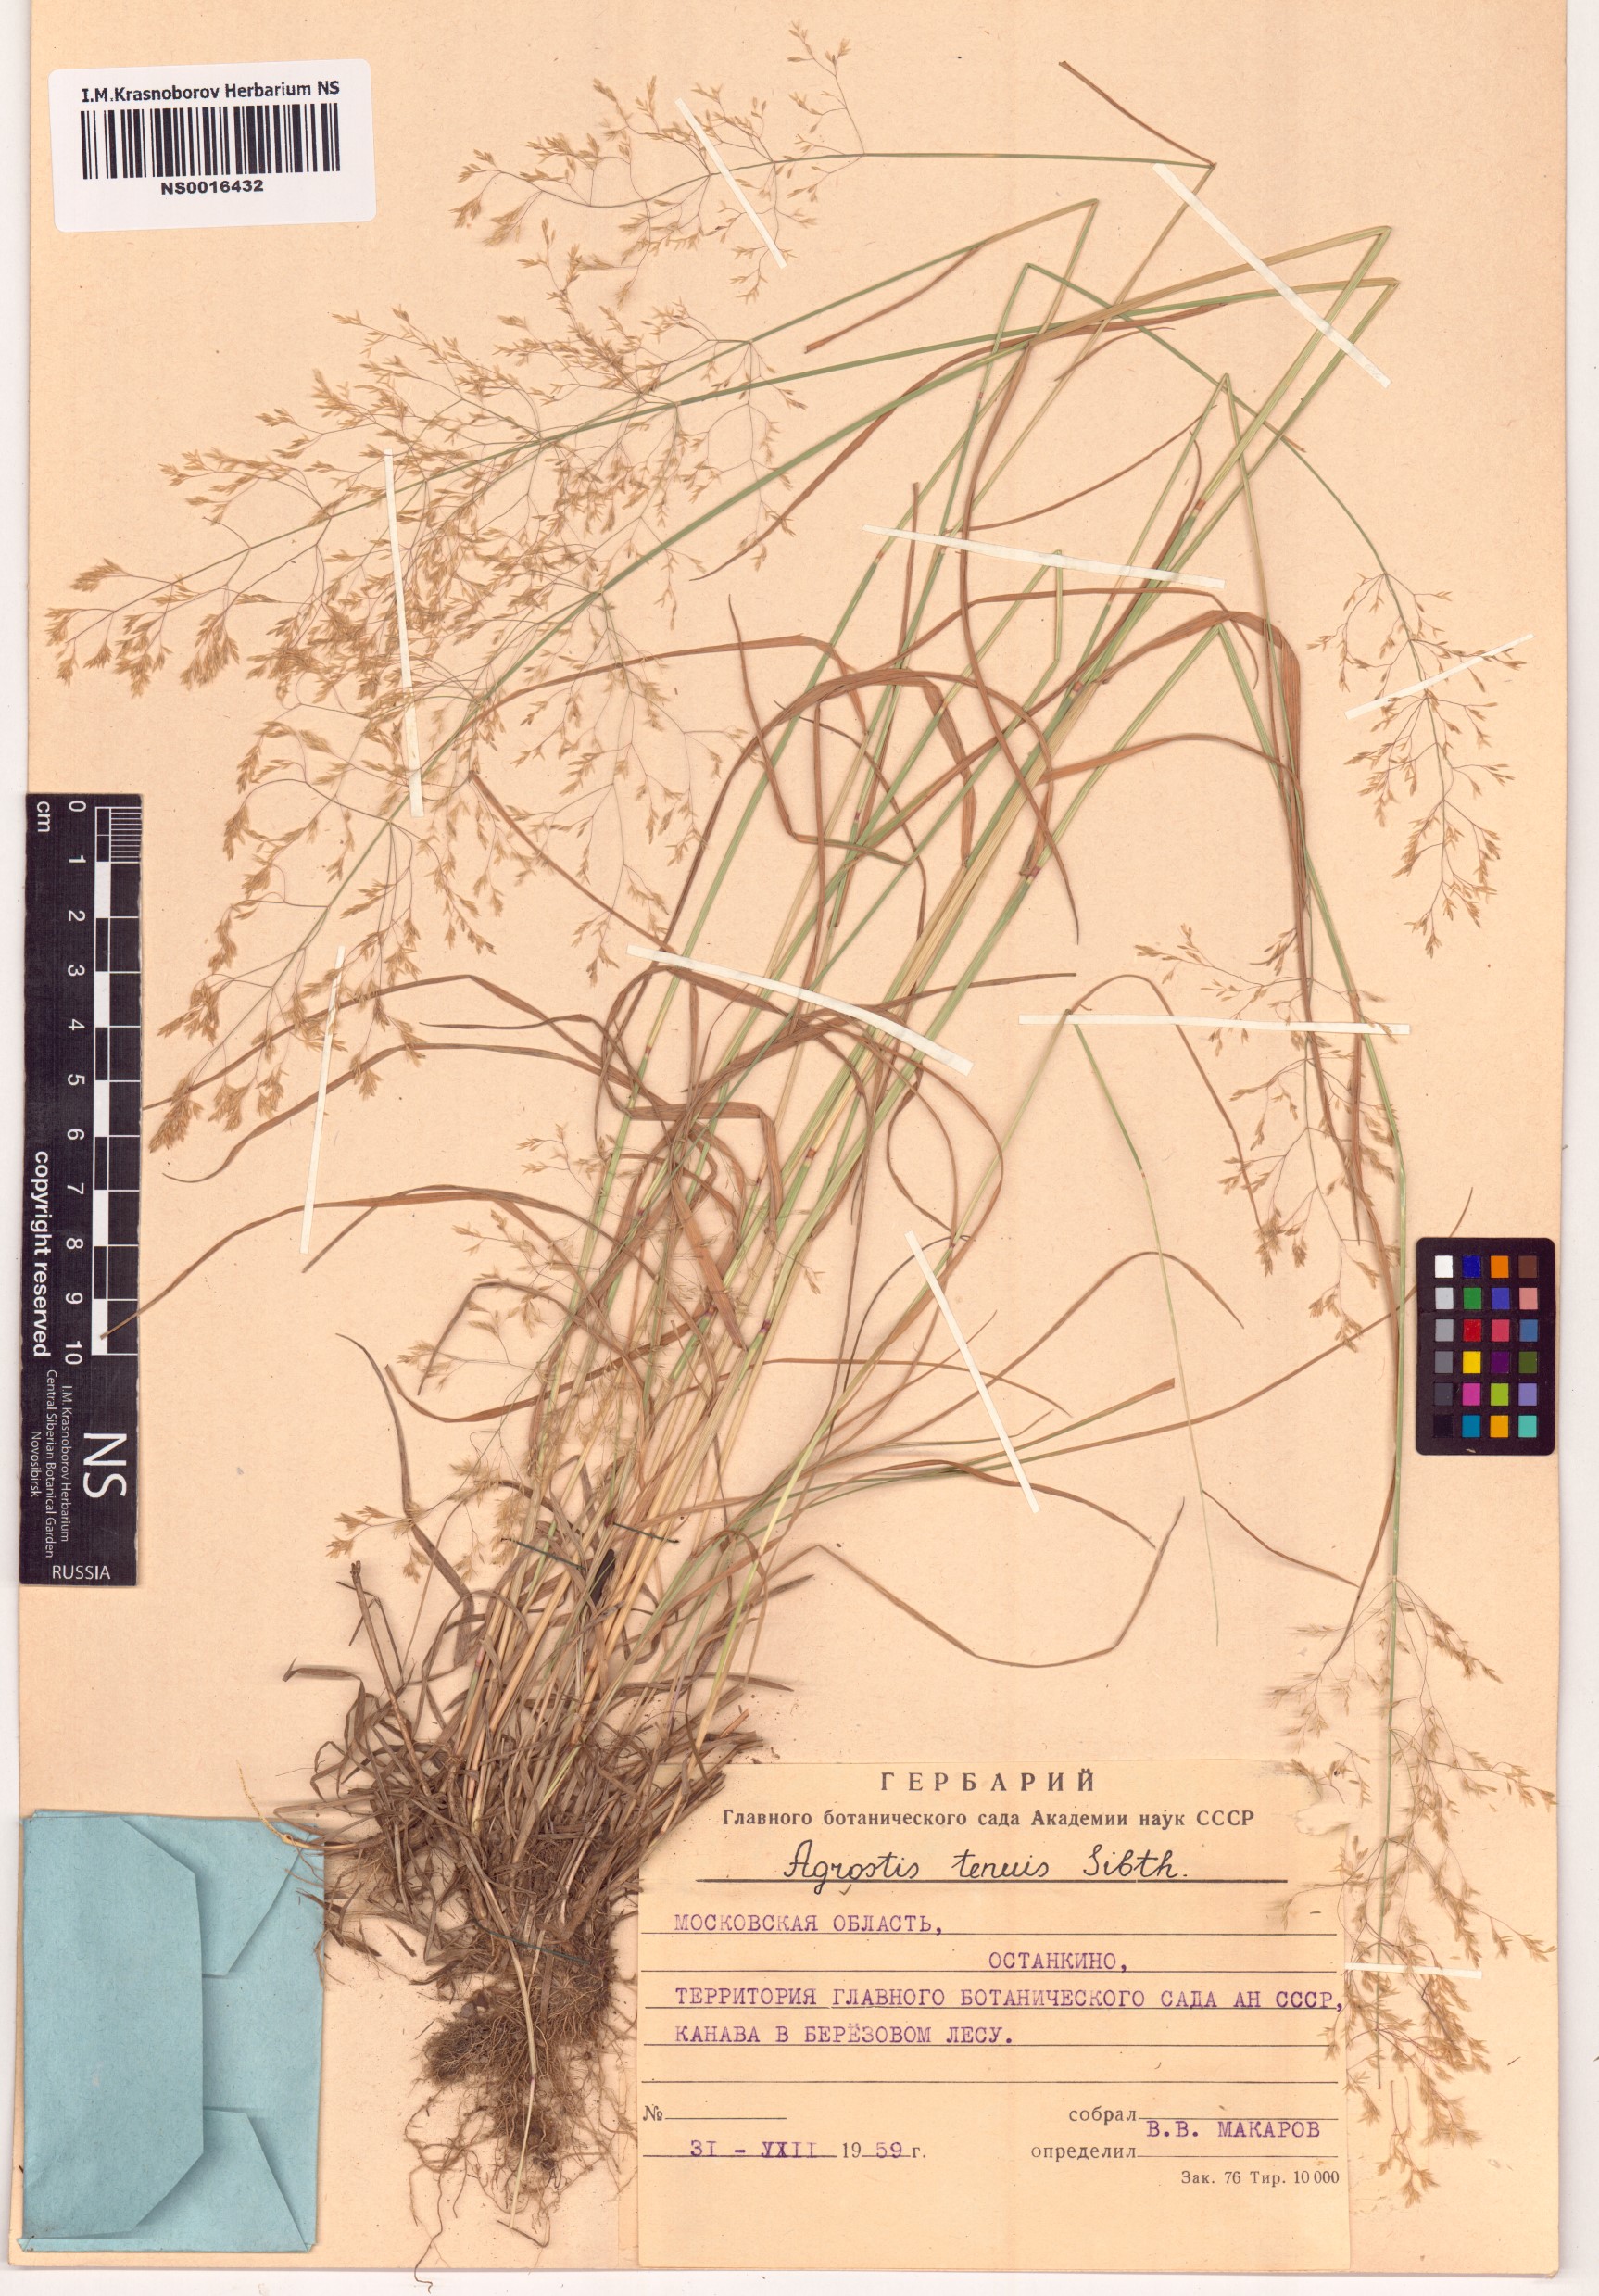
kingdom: Plantae
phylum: Tracheophyta
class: Liliopsida
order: Poales
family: Poaceae
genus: Agrostis
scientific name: Agrostis capillaris
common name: Colonial bentgrass
